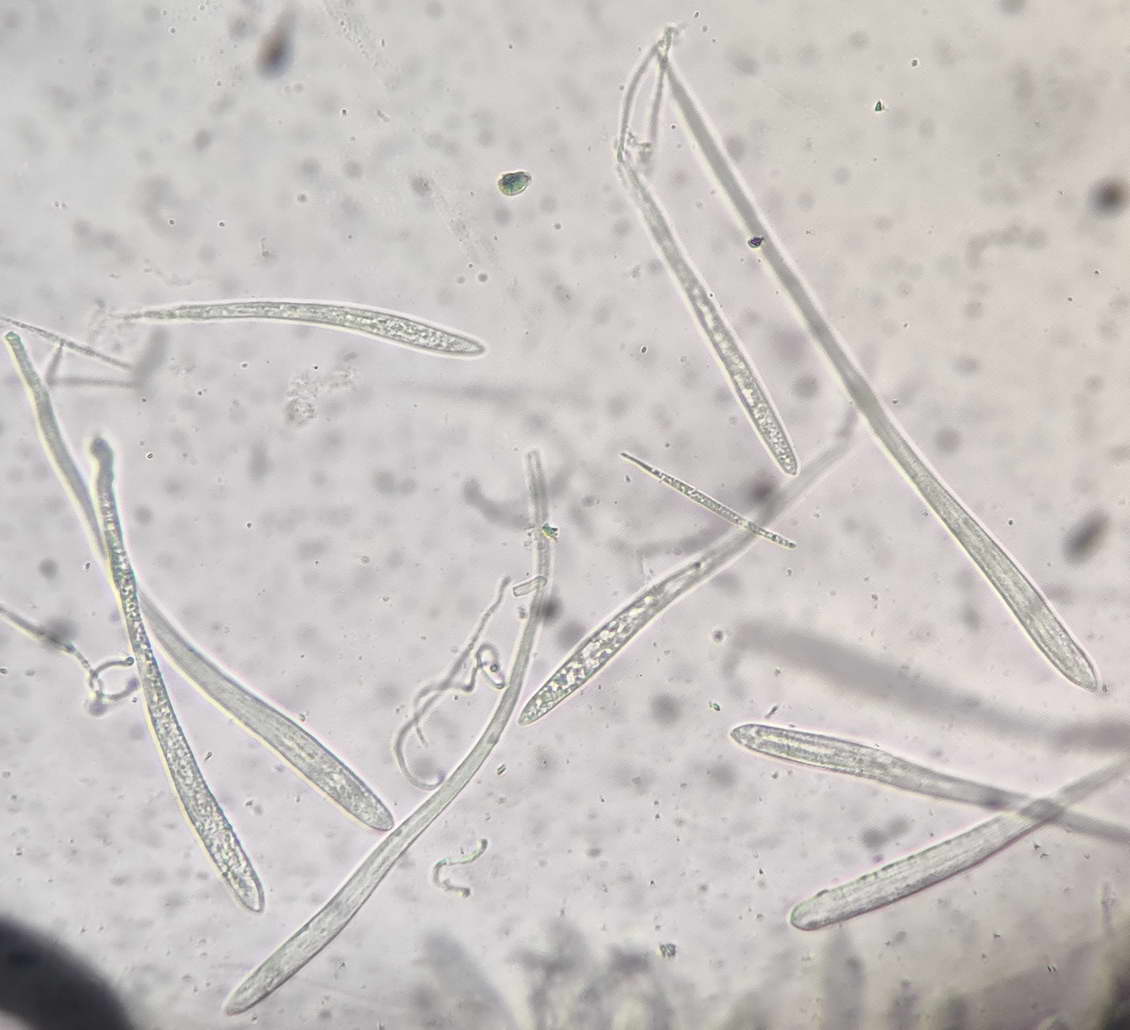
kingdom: Fungi
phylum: Ascomycota
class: Leotiomycetes
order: Rhytismatales
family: Rhytismataceae
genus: Colpoma
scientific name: Colpoma quercinum
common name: ege-sprækkeskive
